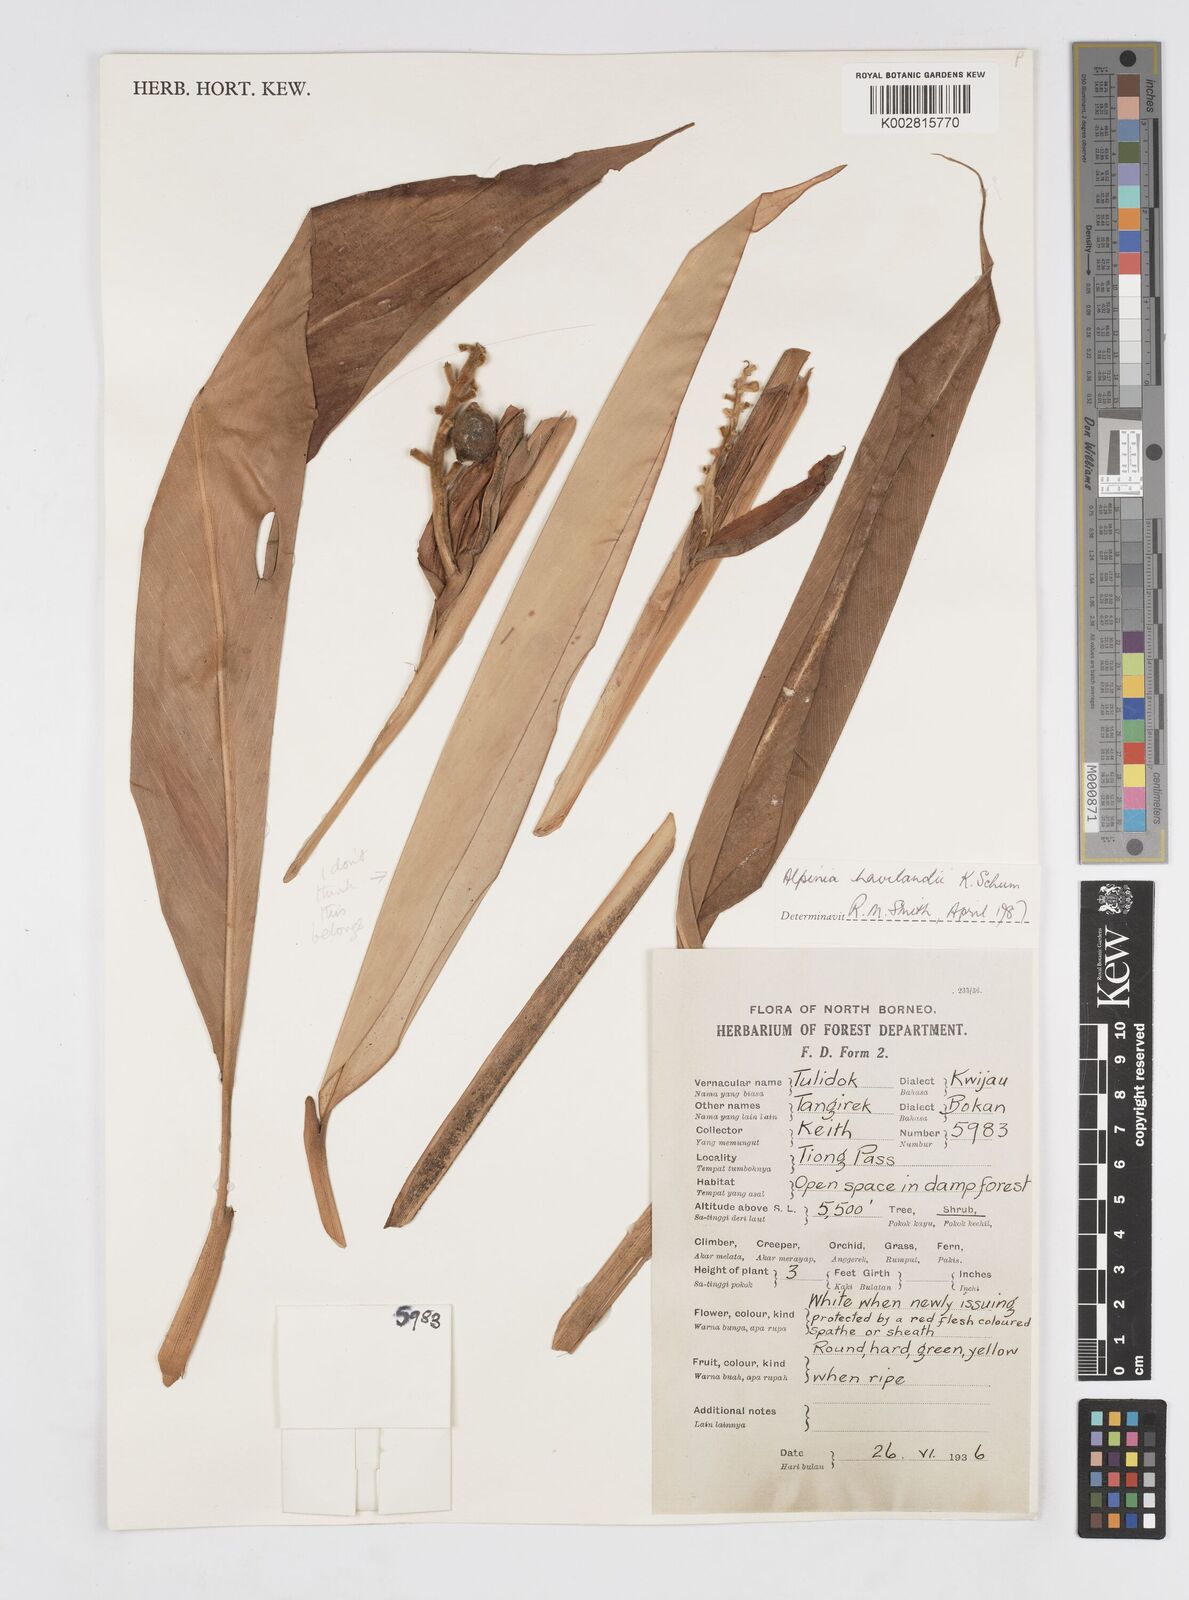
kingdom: Plantae
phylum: Tracheophyta
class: Liliopsida
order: Zingiberales
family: Zingiberaceae
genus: Alpinia
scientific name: Alpinia havilandii
